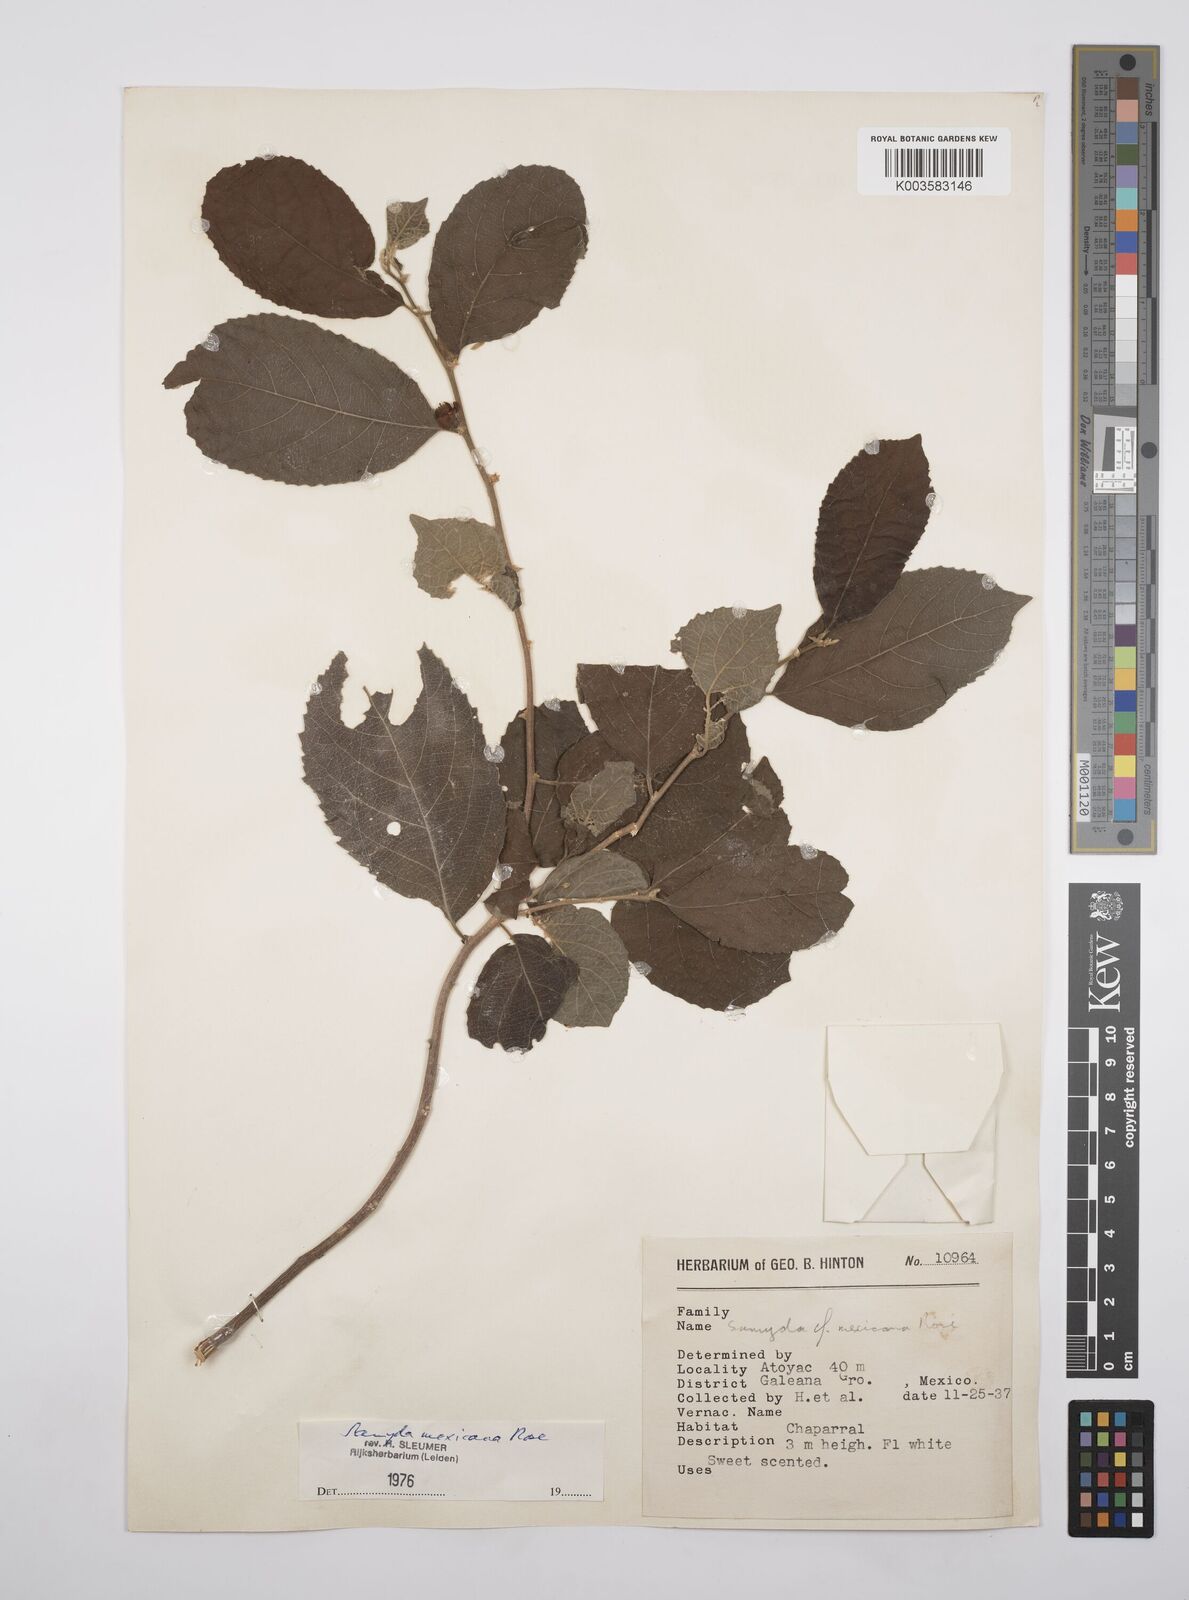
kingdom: Plantae
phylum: Tracheophyta
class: Magnoliopsida
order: Malpighiales
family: Salicaceae
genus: Casearia
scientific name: Casearia mexicana
